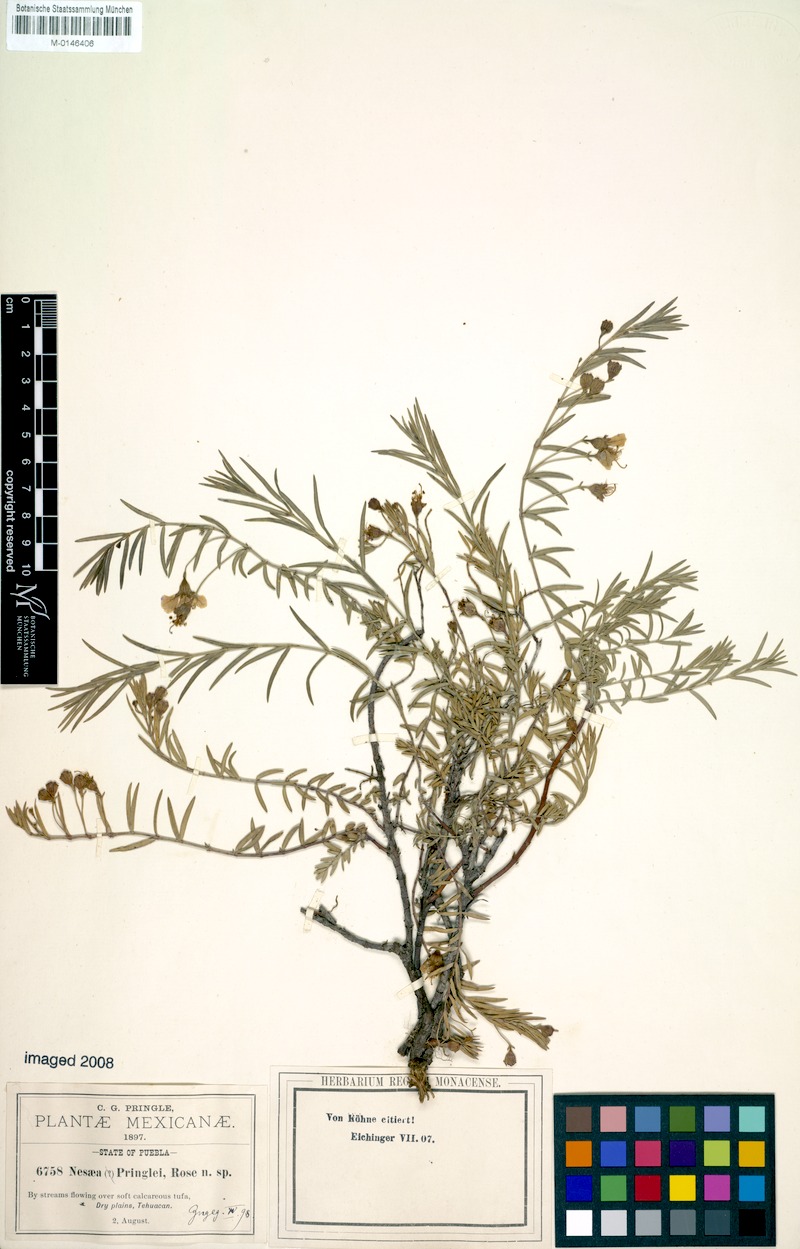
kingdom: Plantae
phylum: Tracheophyta
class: Magnoliopsida
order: Myrtales
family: Lythraceae
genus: Ammannia
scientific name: Ammannia pringlei
